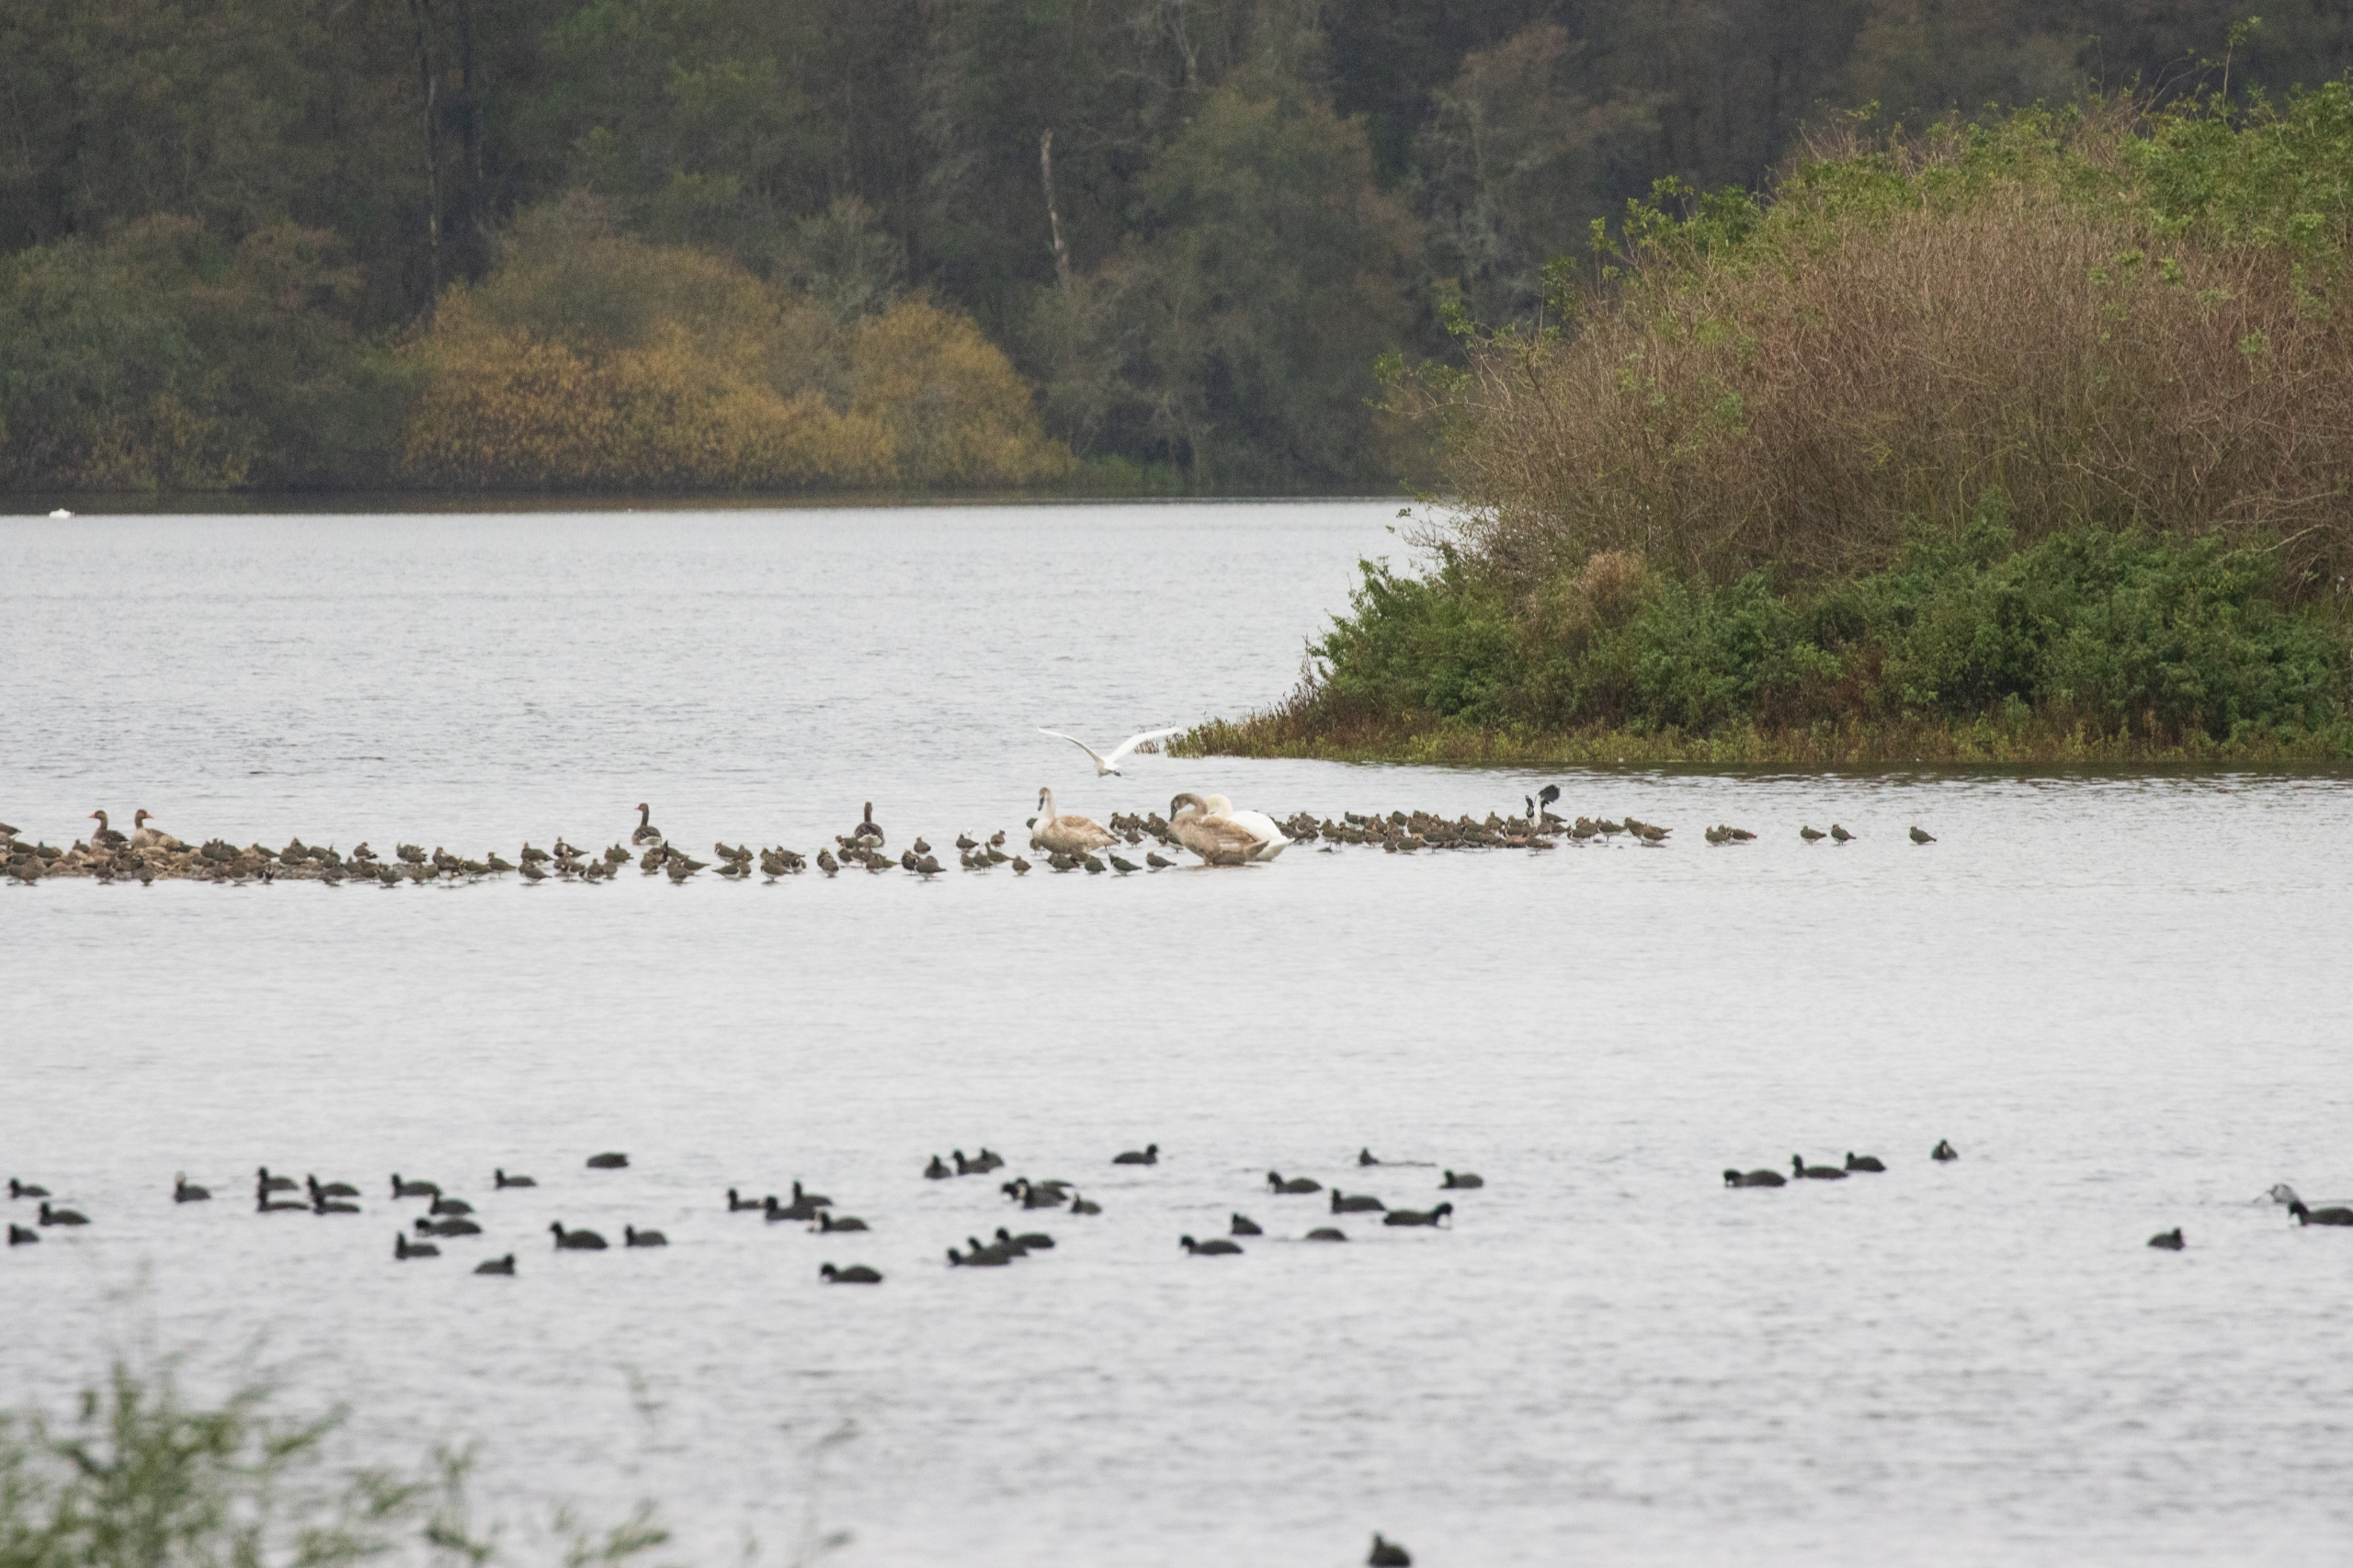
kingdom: Animalia
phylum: Chordata
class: Aves
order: Pelecaniformes
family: Ardeidae
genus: Ardea
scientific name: Ardea alba
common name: Sølvhejre
